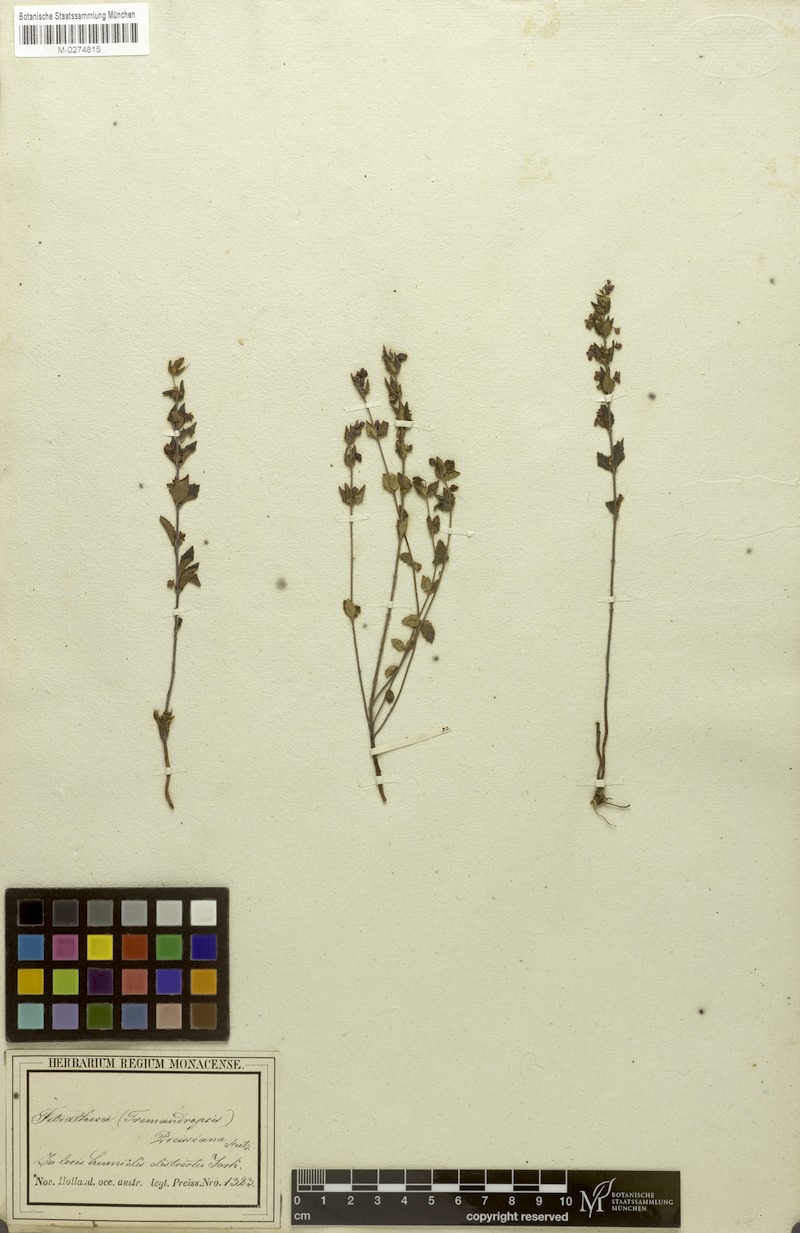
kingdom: Plantae
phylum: Tracheophyta
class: Magnoliopsida
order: Oxalidales
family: Elaeocarpaceae
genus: Tetratheca
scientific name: Tetratheca pilifera
